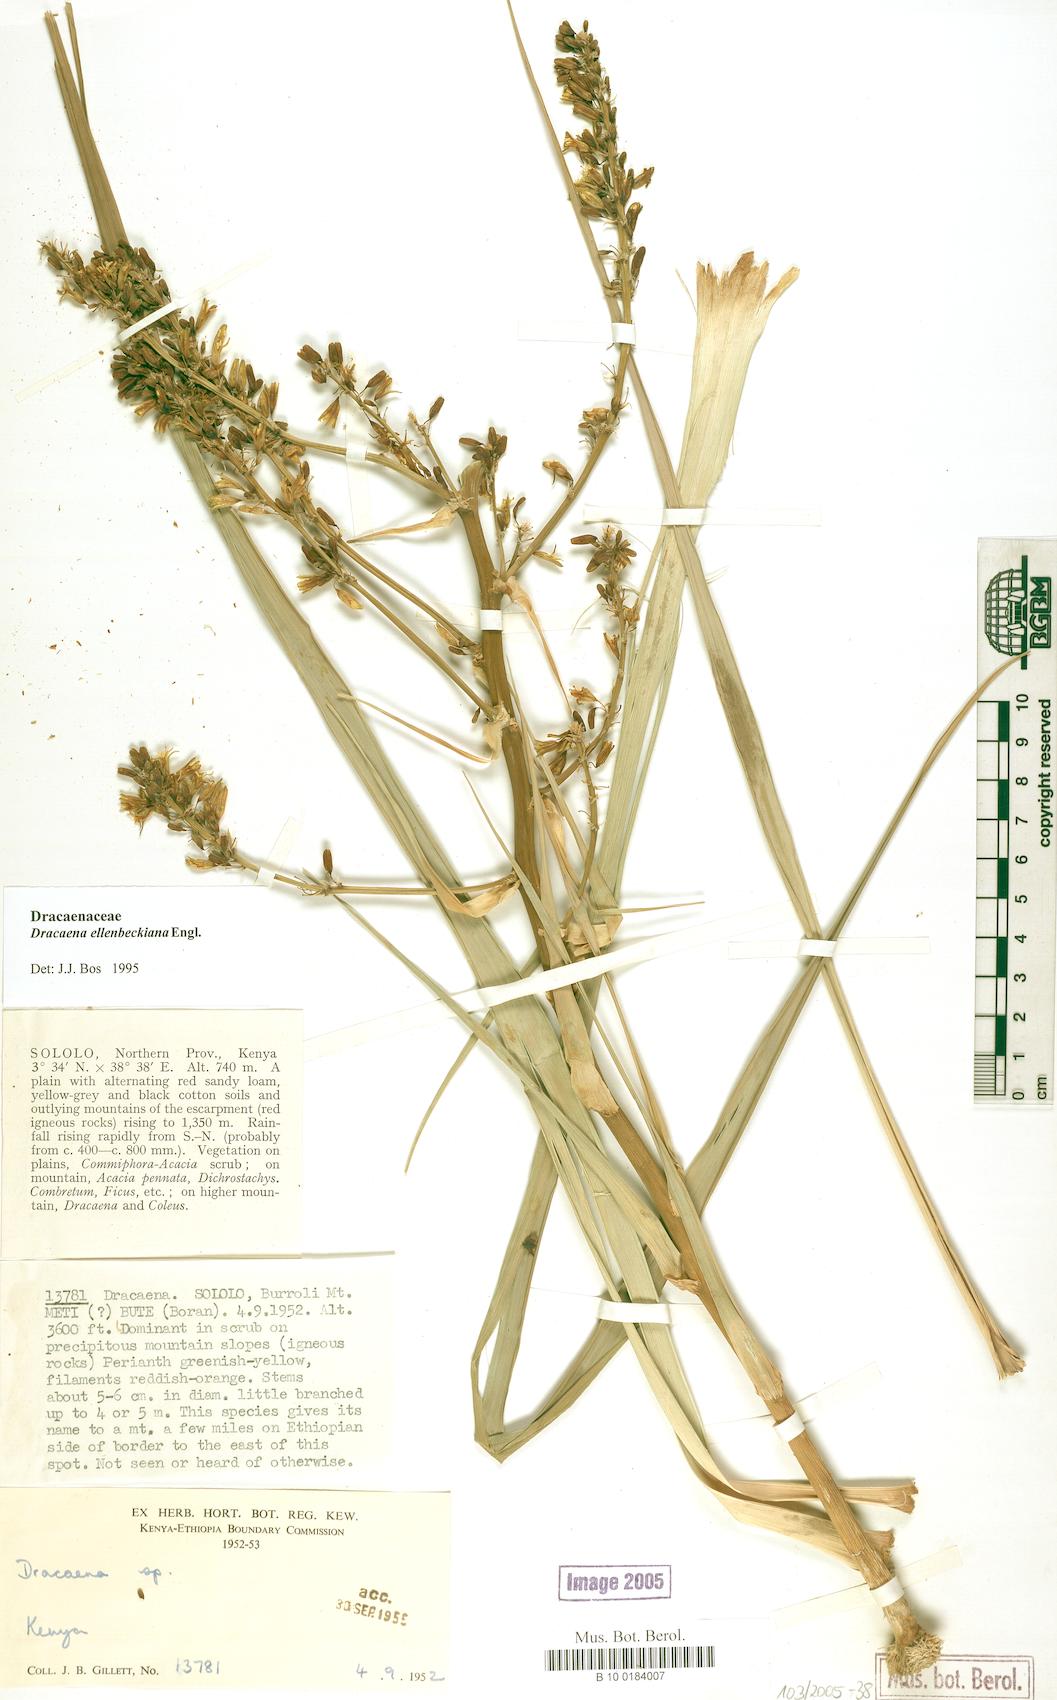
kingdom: Plantae
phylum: Tracheophyta
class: Liliopsida
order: Asparagales
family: Asparagaceae
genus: Dracaena
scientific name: Dracaena ellenbeckiana
